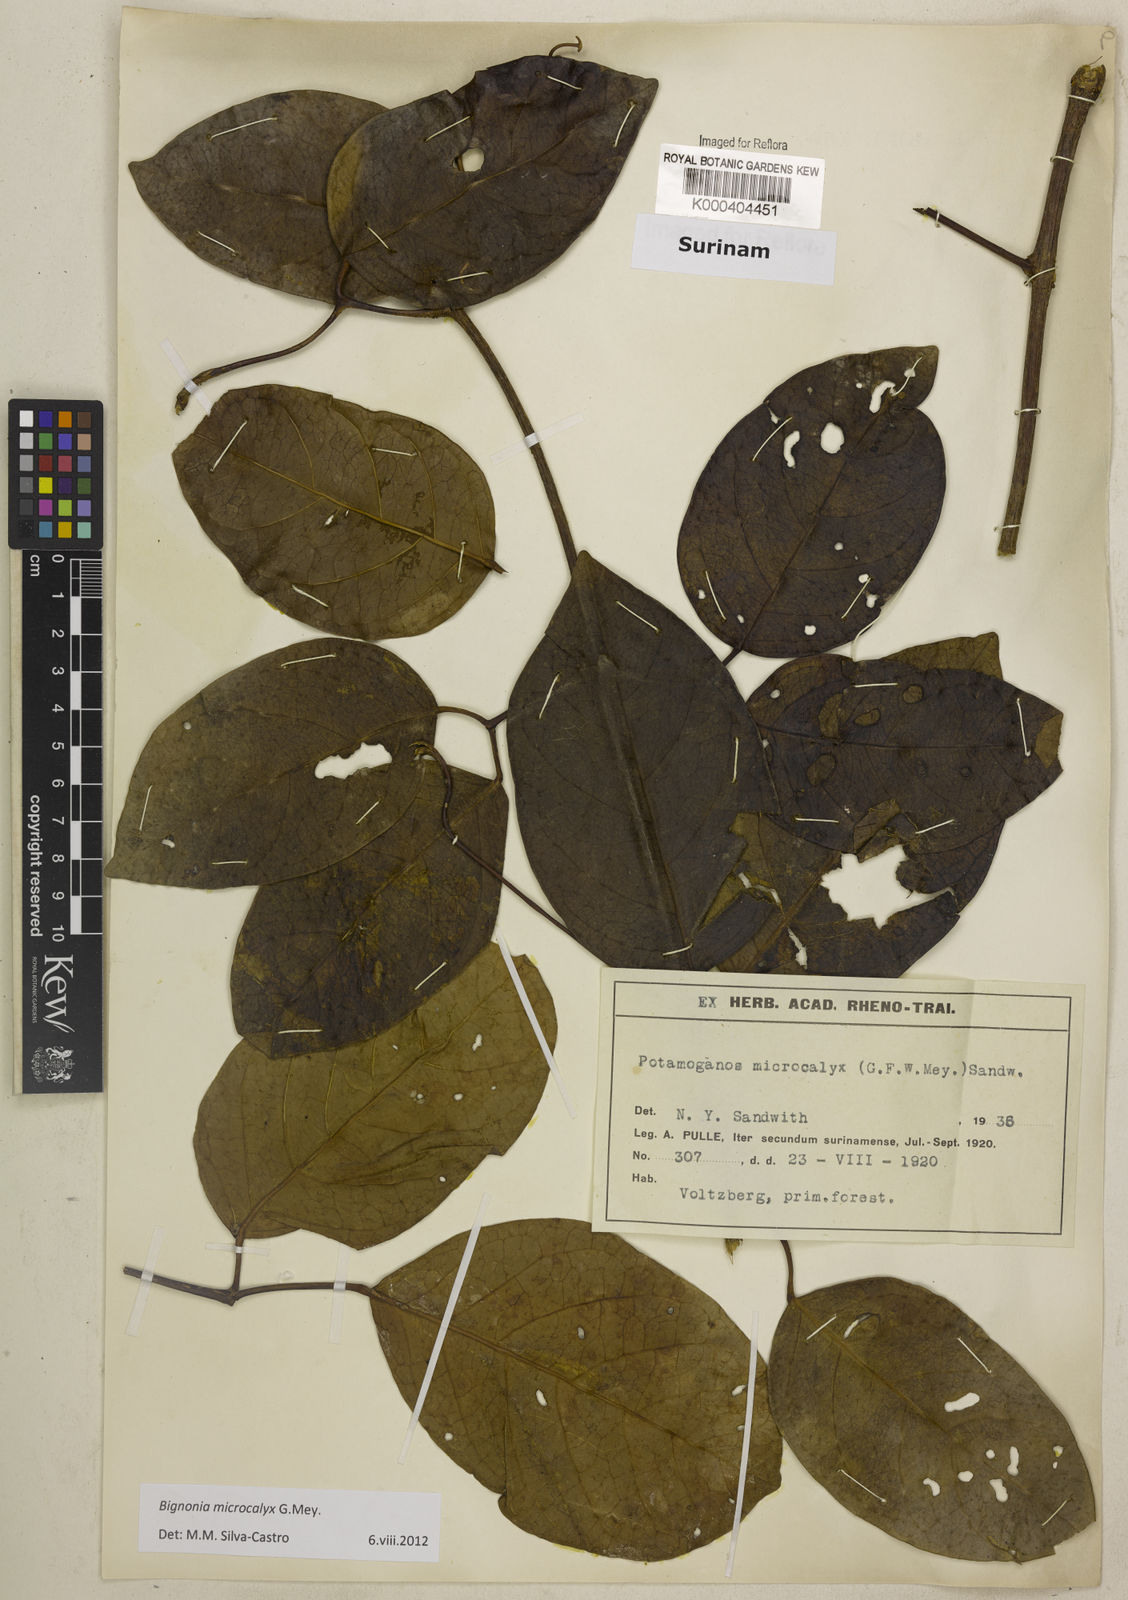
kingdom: Plantae
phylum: Tracheophyta
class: Magnoliopsida
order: Lamiales
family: Bignoniaceae
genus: Bignonia
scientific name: Bignonia microcalyx
